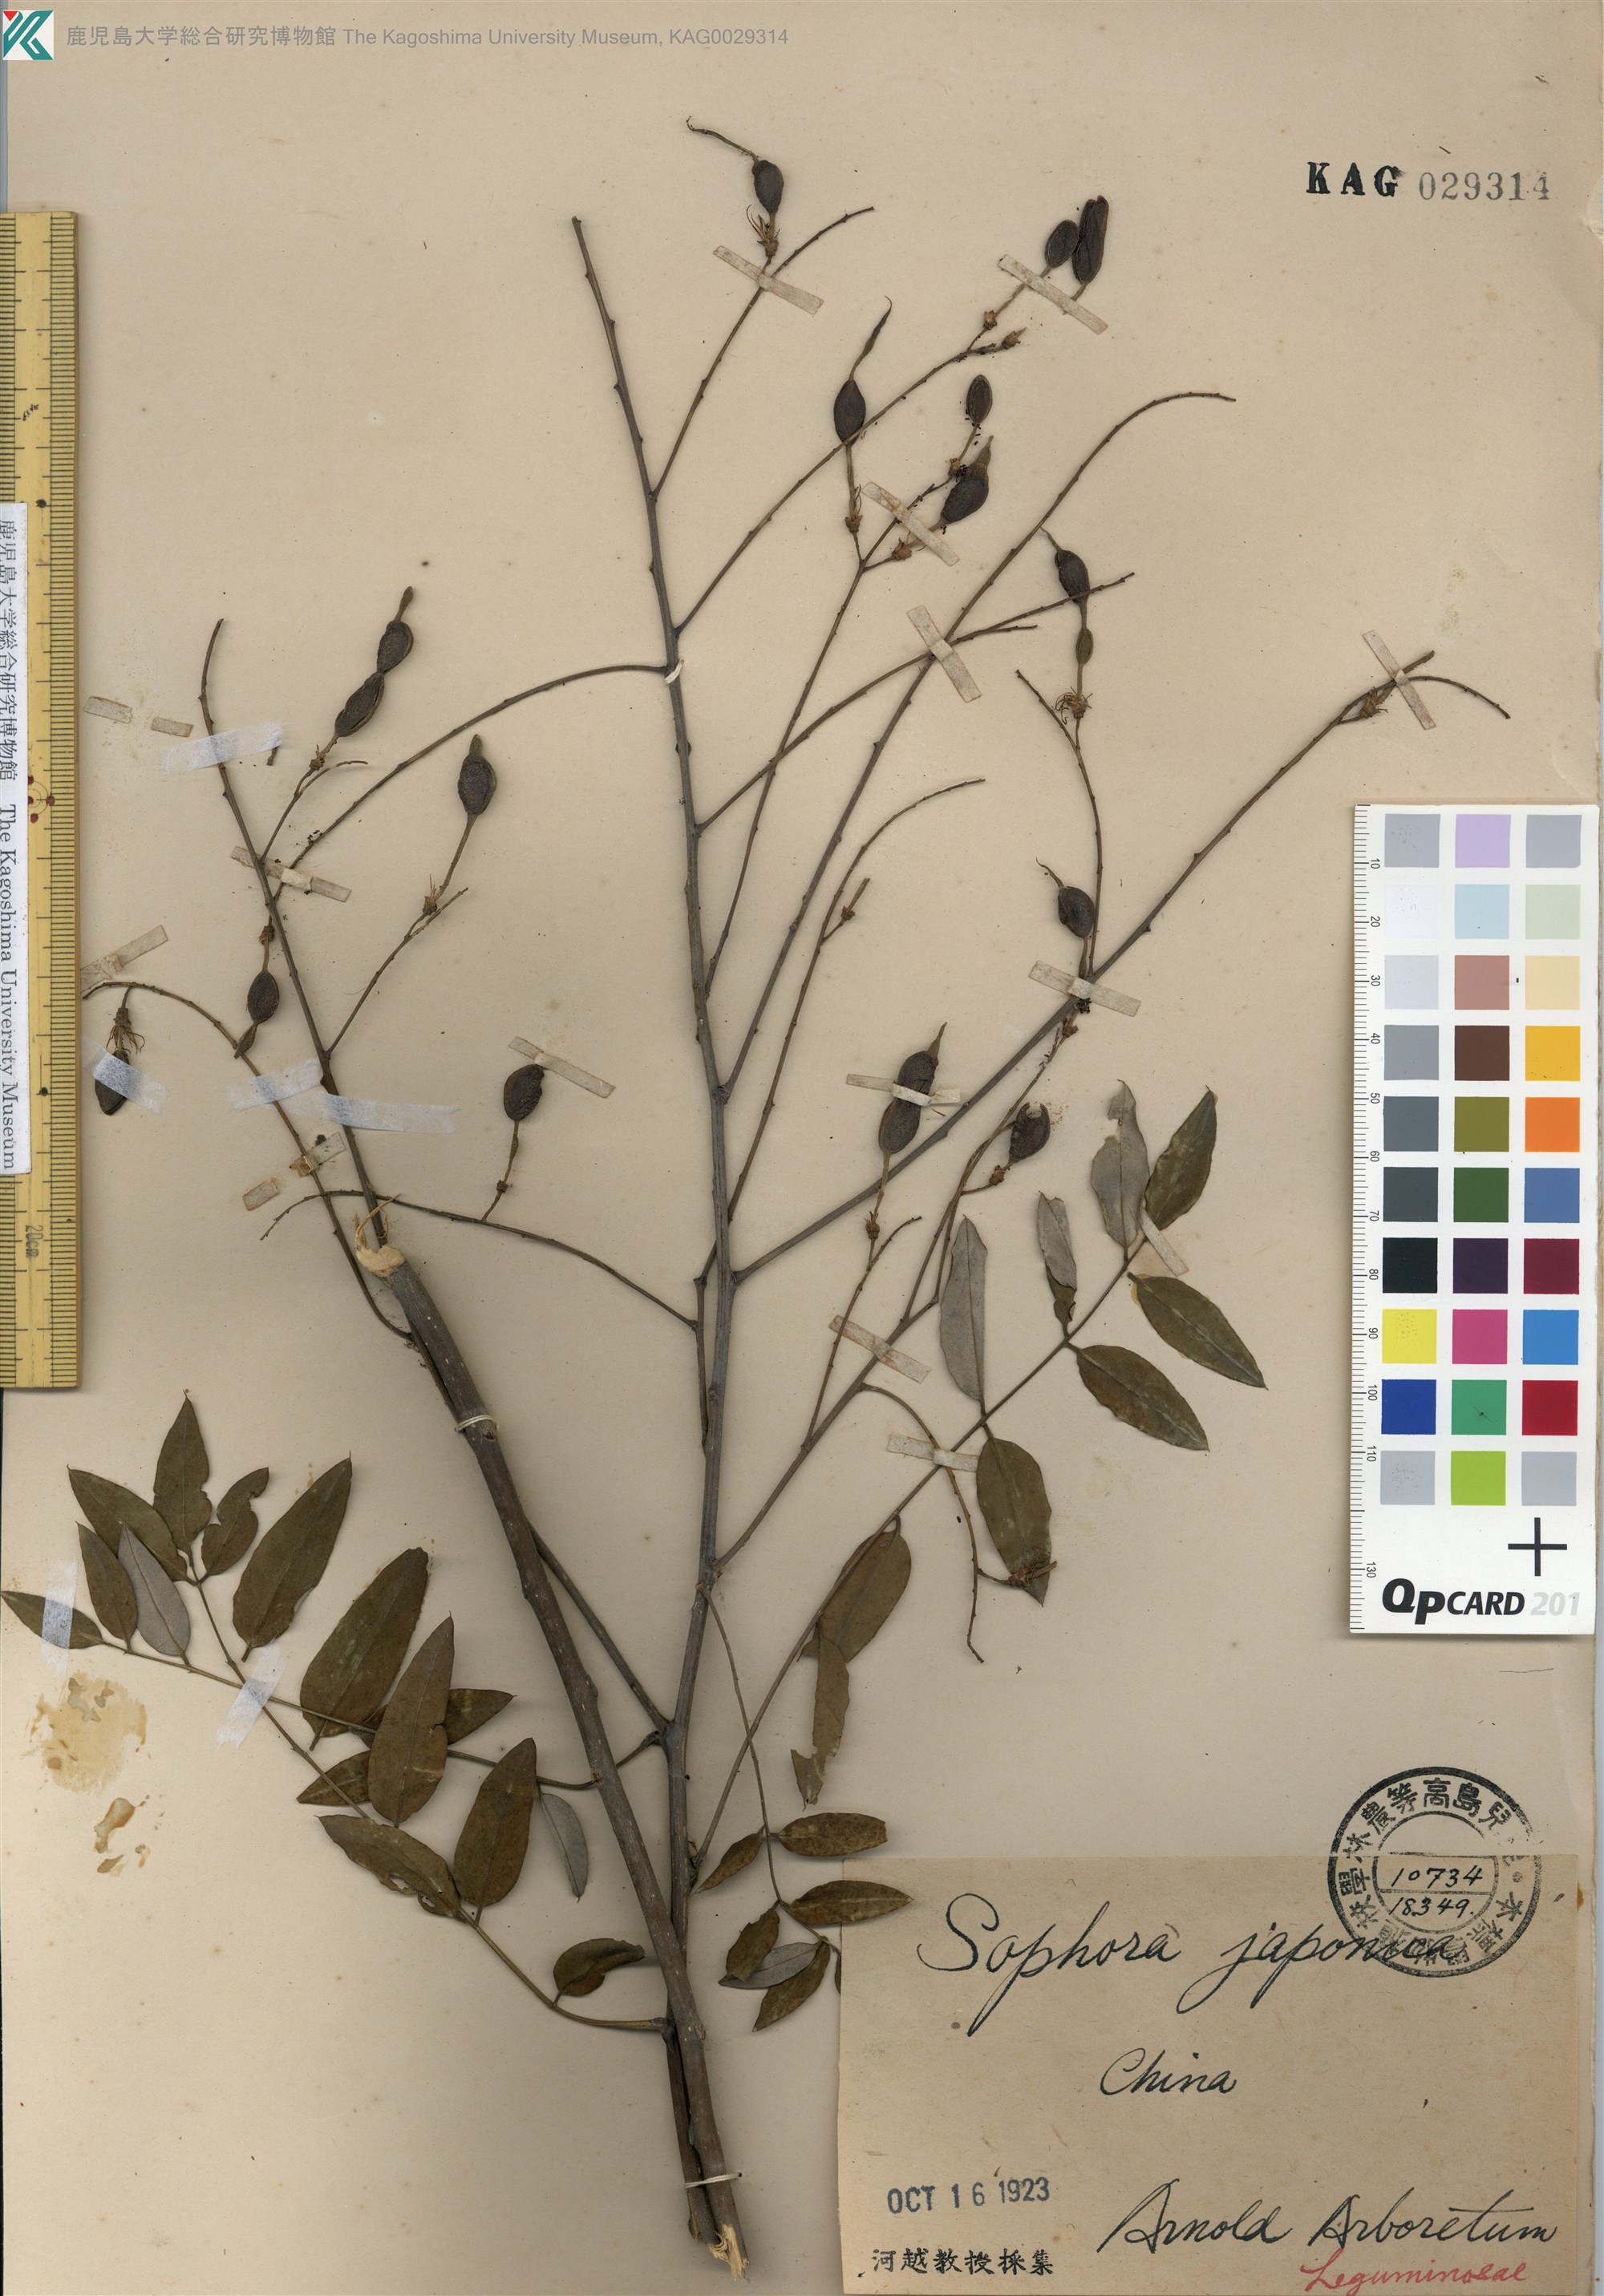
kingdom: Plantae
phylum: Tracheophyta
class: Magnoliopsida
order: Fabales
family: Fabaceae
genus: Styphnolobium
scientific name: Styphnolobium japonicum
